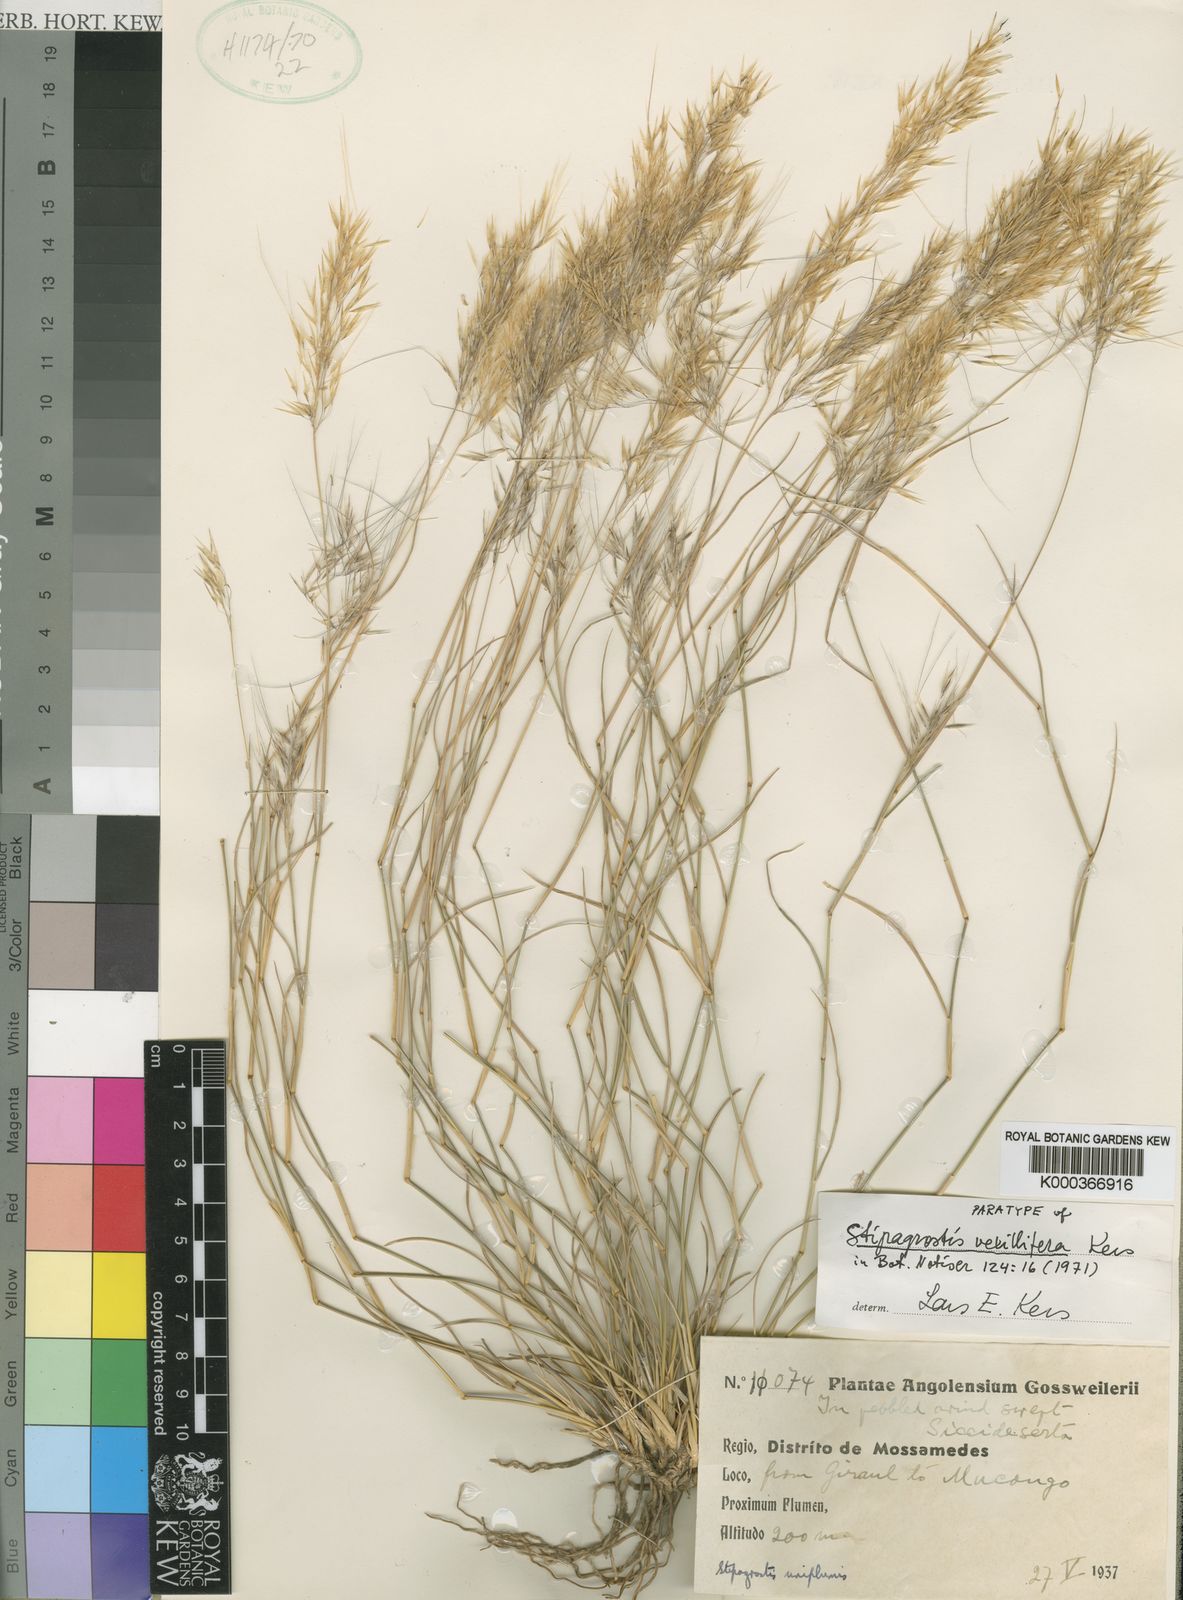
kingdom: Plantae
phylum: Tracheophyta
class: Liliopsida
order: Poales
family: Poaceae
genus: Stipagrostis
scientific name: Stipagrostis
